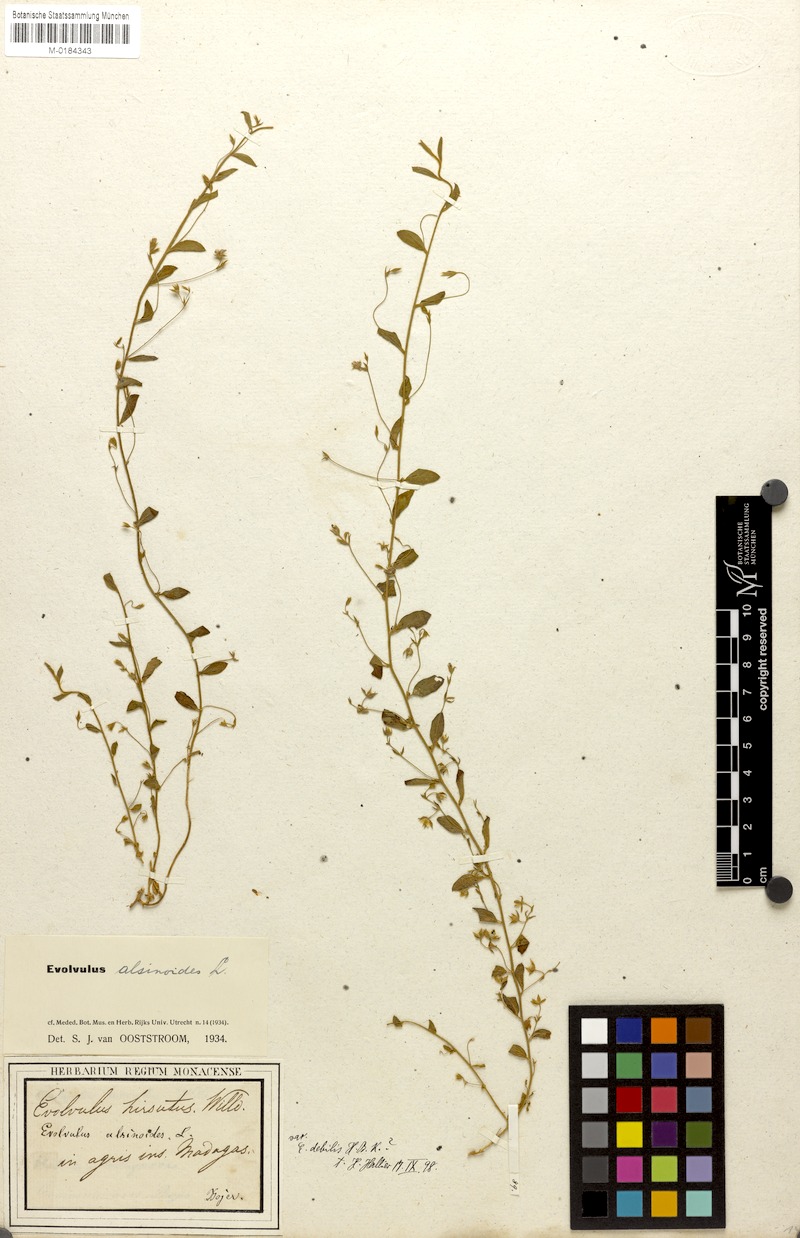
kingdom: Plantae
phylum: Tracheophyta
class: Magnoliopsida
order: Solanales
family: Convolvulaceae
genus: Evolvulus
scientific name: Evolvulus alsinoides
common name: Slender dwarf morning-glory
